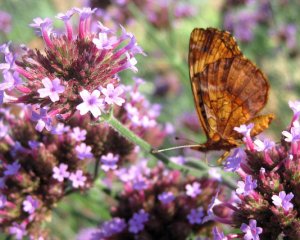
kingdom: Animalia
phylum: Arthropoda
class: Insecta
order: Lepidoptera
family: Nymphalidae
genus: Clossiana
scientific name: Clossiana toddi
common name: Meadow Fritillary
